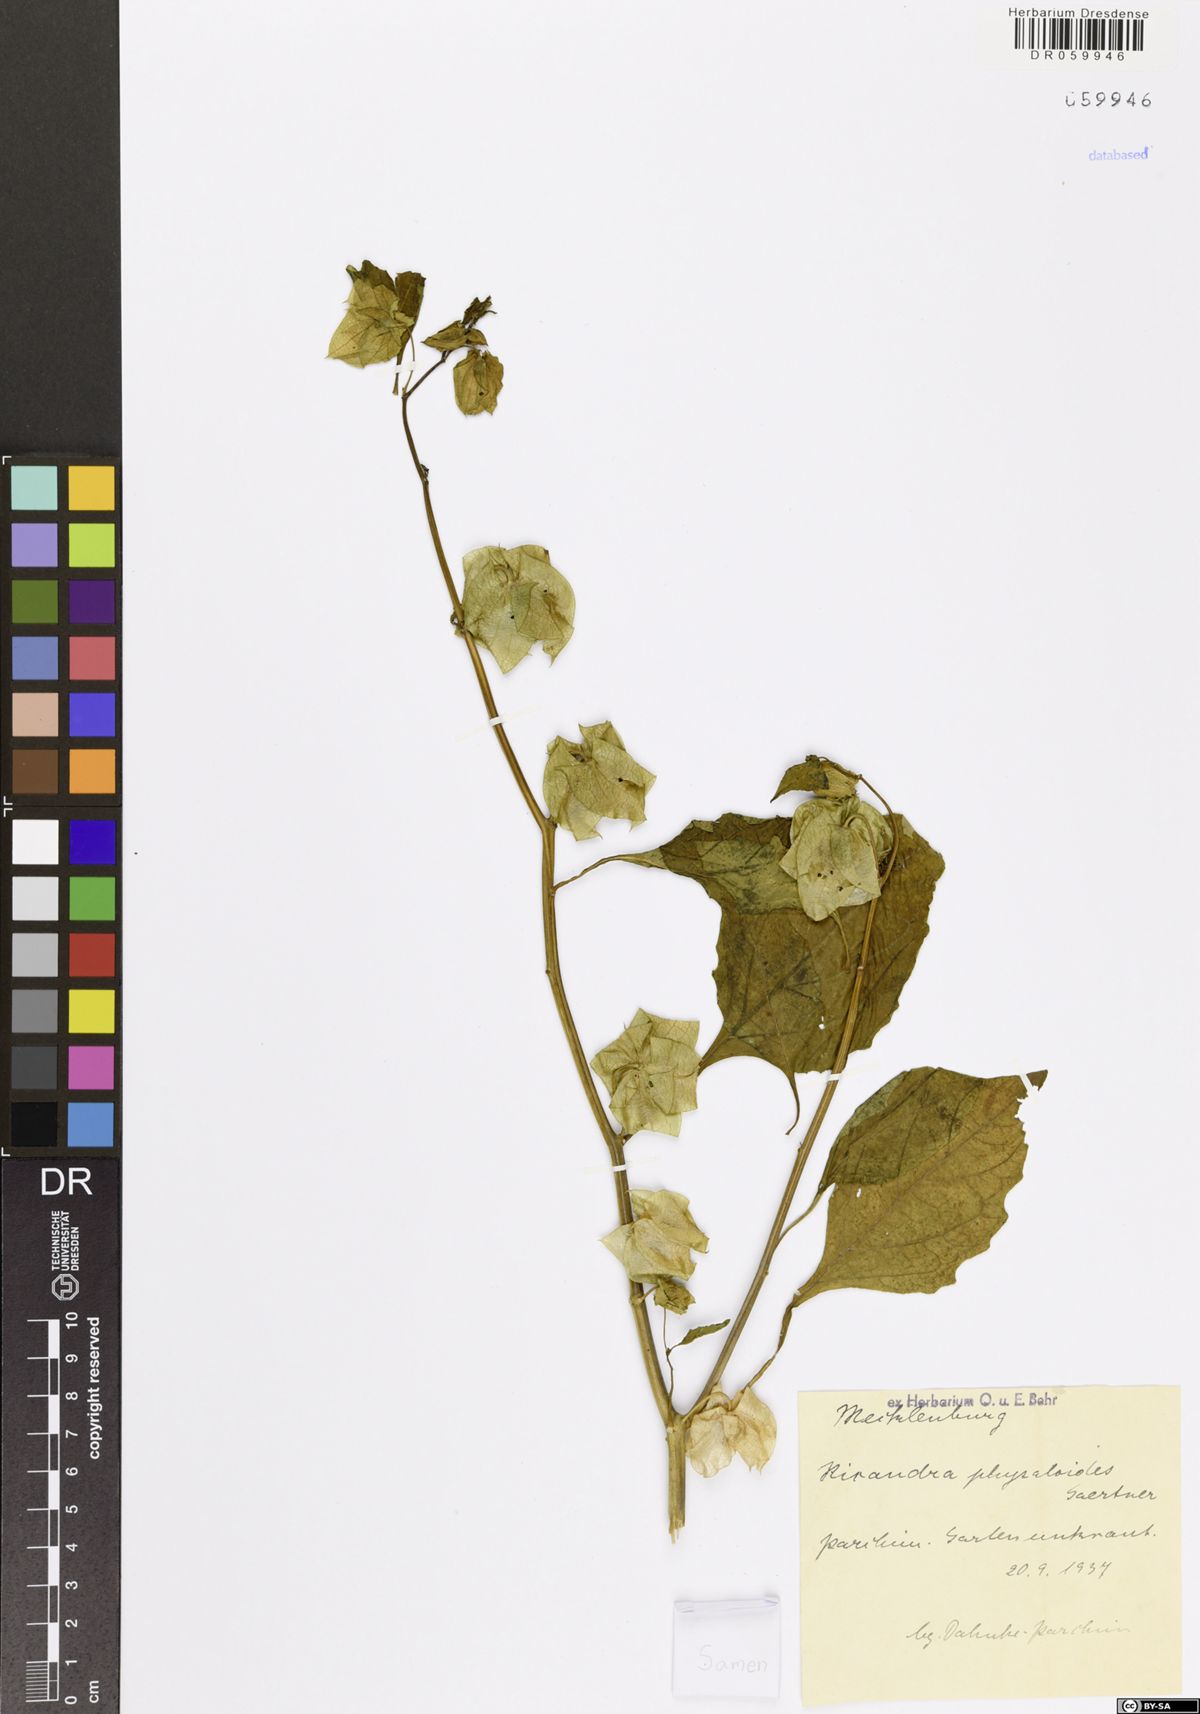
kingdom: Plantae
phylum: Tracheophyta
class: Magnoliopsida
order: Solanales
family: Solanaceae
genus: Nicandra
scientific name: Nicandra physalodes
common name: Apple-of-peru
